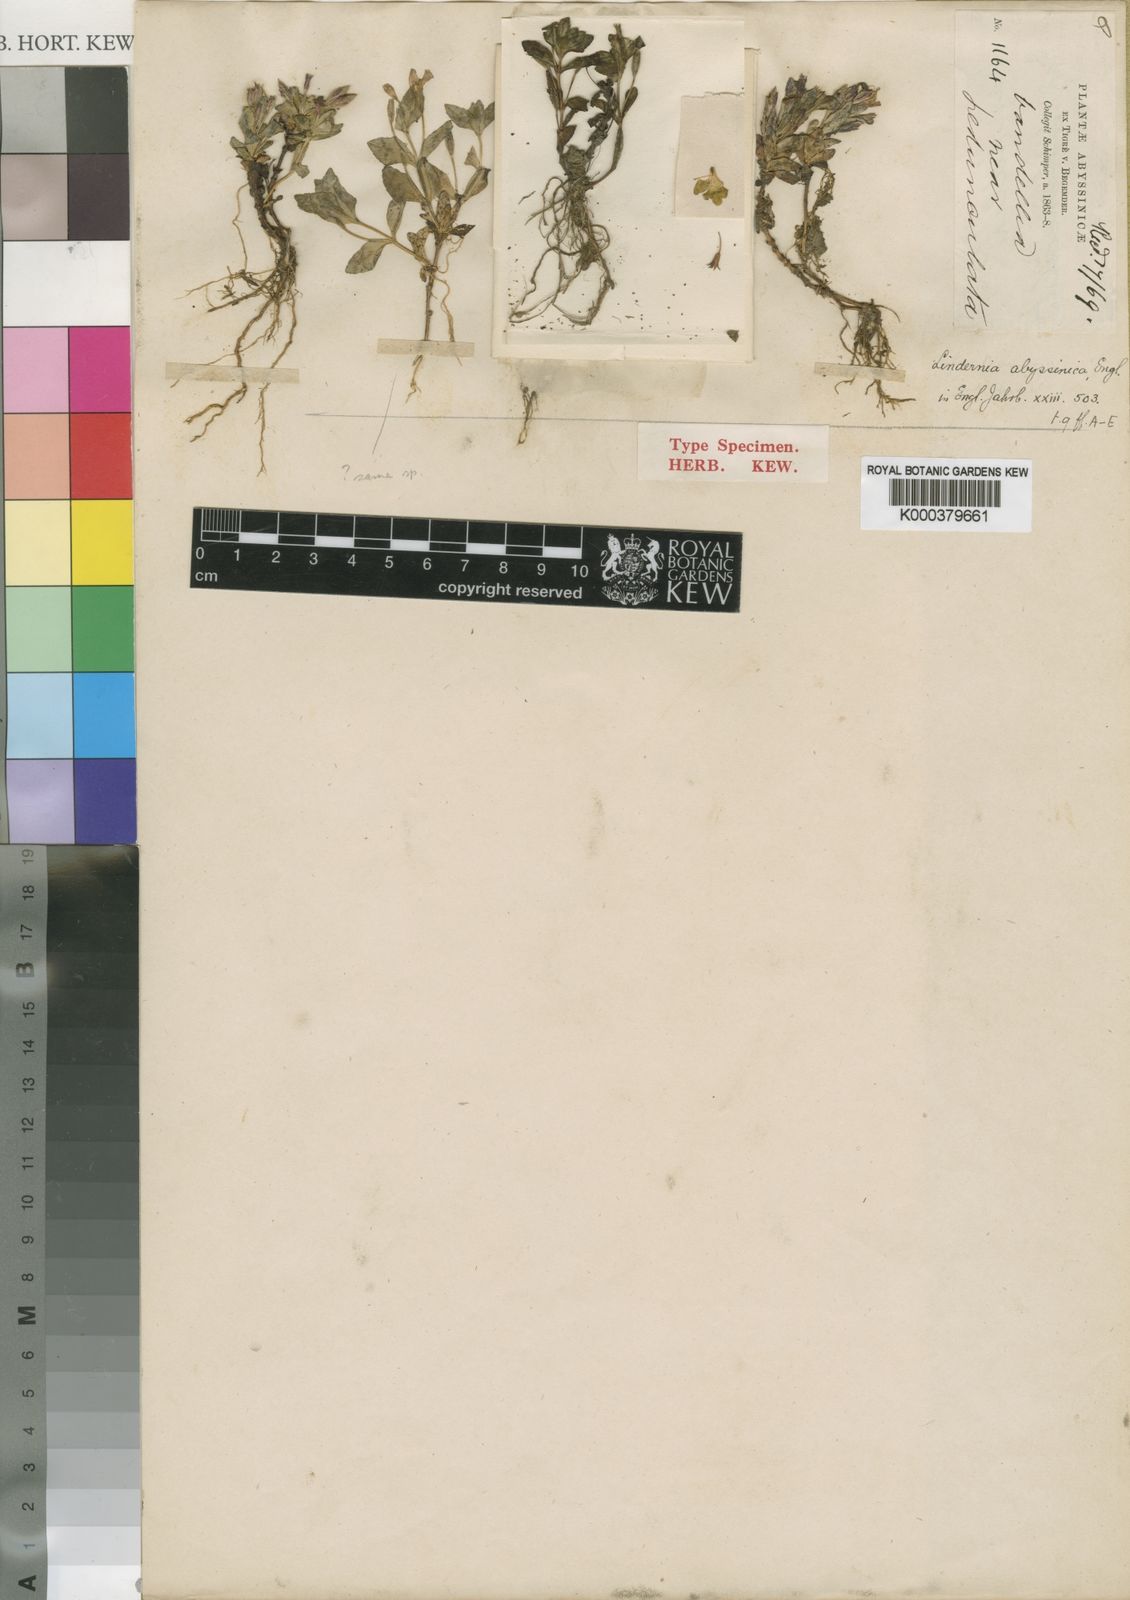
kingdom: Plantae
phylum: Tracheophyta
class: Magnoliopsida
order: Lamiales
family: Linderniaceae
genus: Craterostigma
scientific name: Craterostigma abyssinicum
